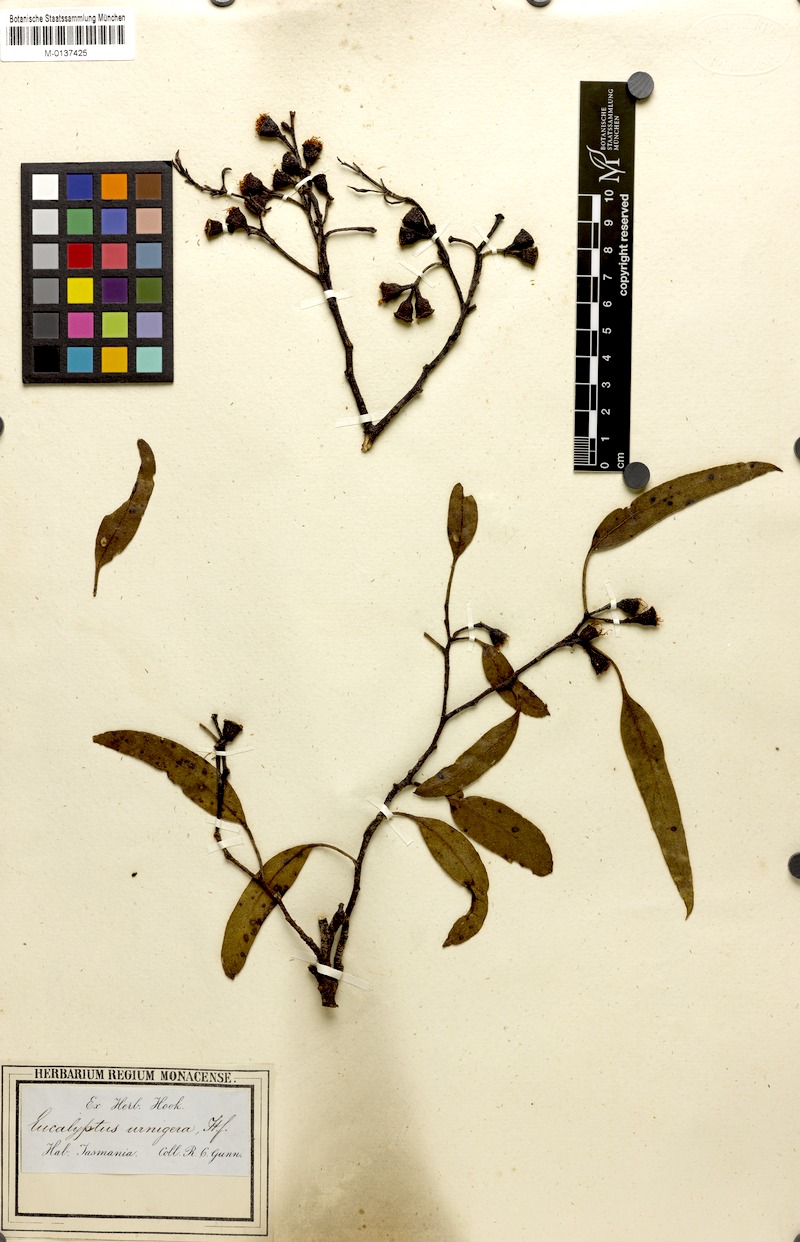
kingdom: Plantae
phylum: Tracheophyta
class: Magnoliopsida
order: Myrtales
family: Myrtaceae
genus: Eucalyptus
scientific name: Eucalyptus urnigera
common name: Urn-fruited gum
